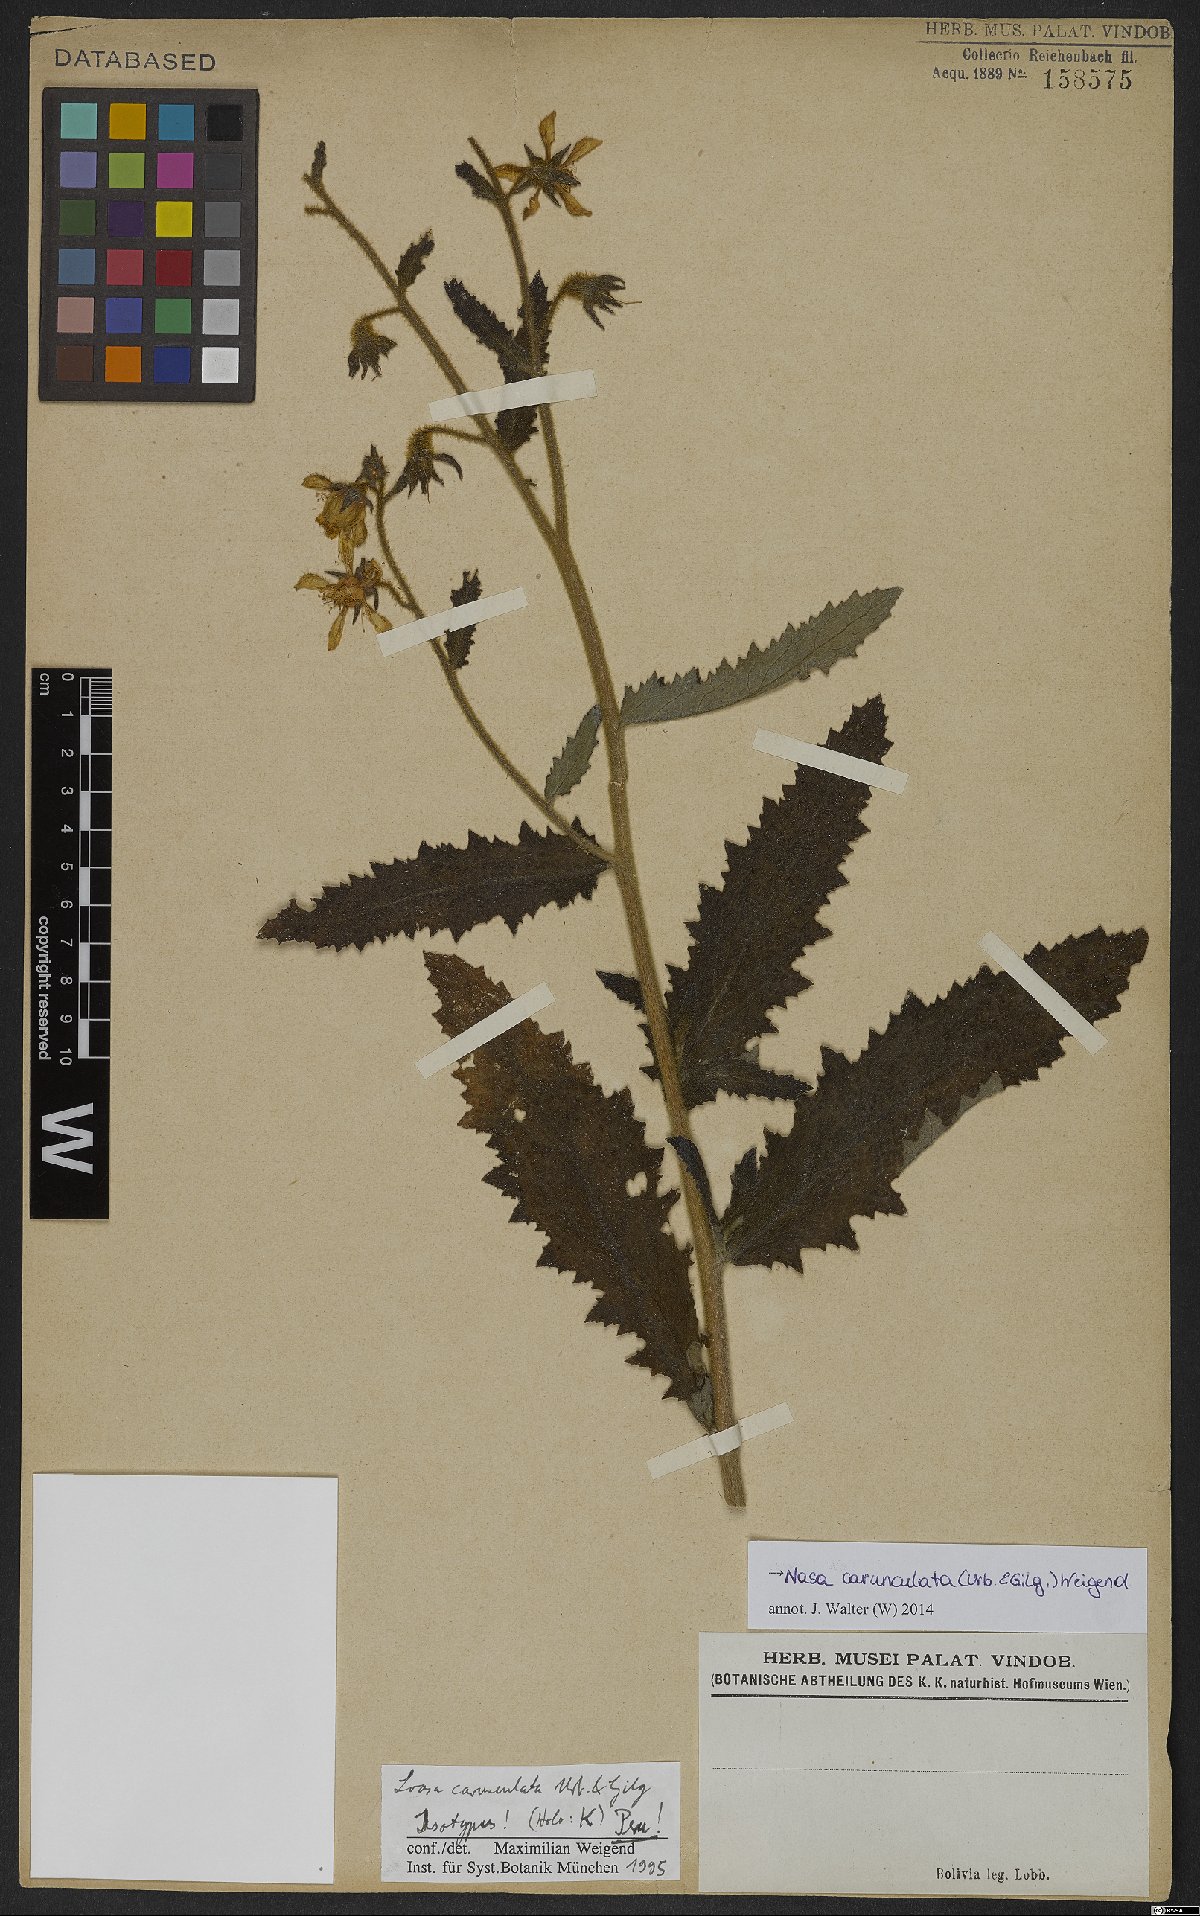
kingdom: Plantae
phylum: Tracheophyta
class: Magnoliopsida
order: Cornales
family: Loasaceae
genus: Nasa
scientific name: Nasa carunculata
